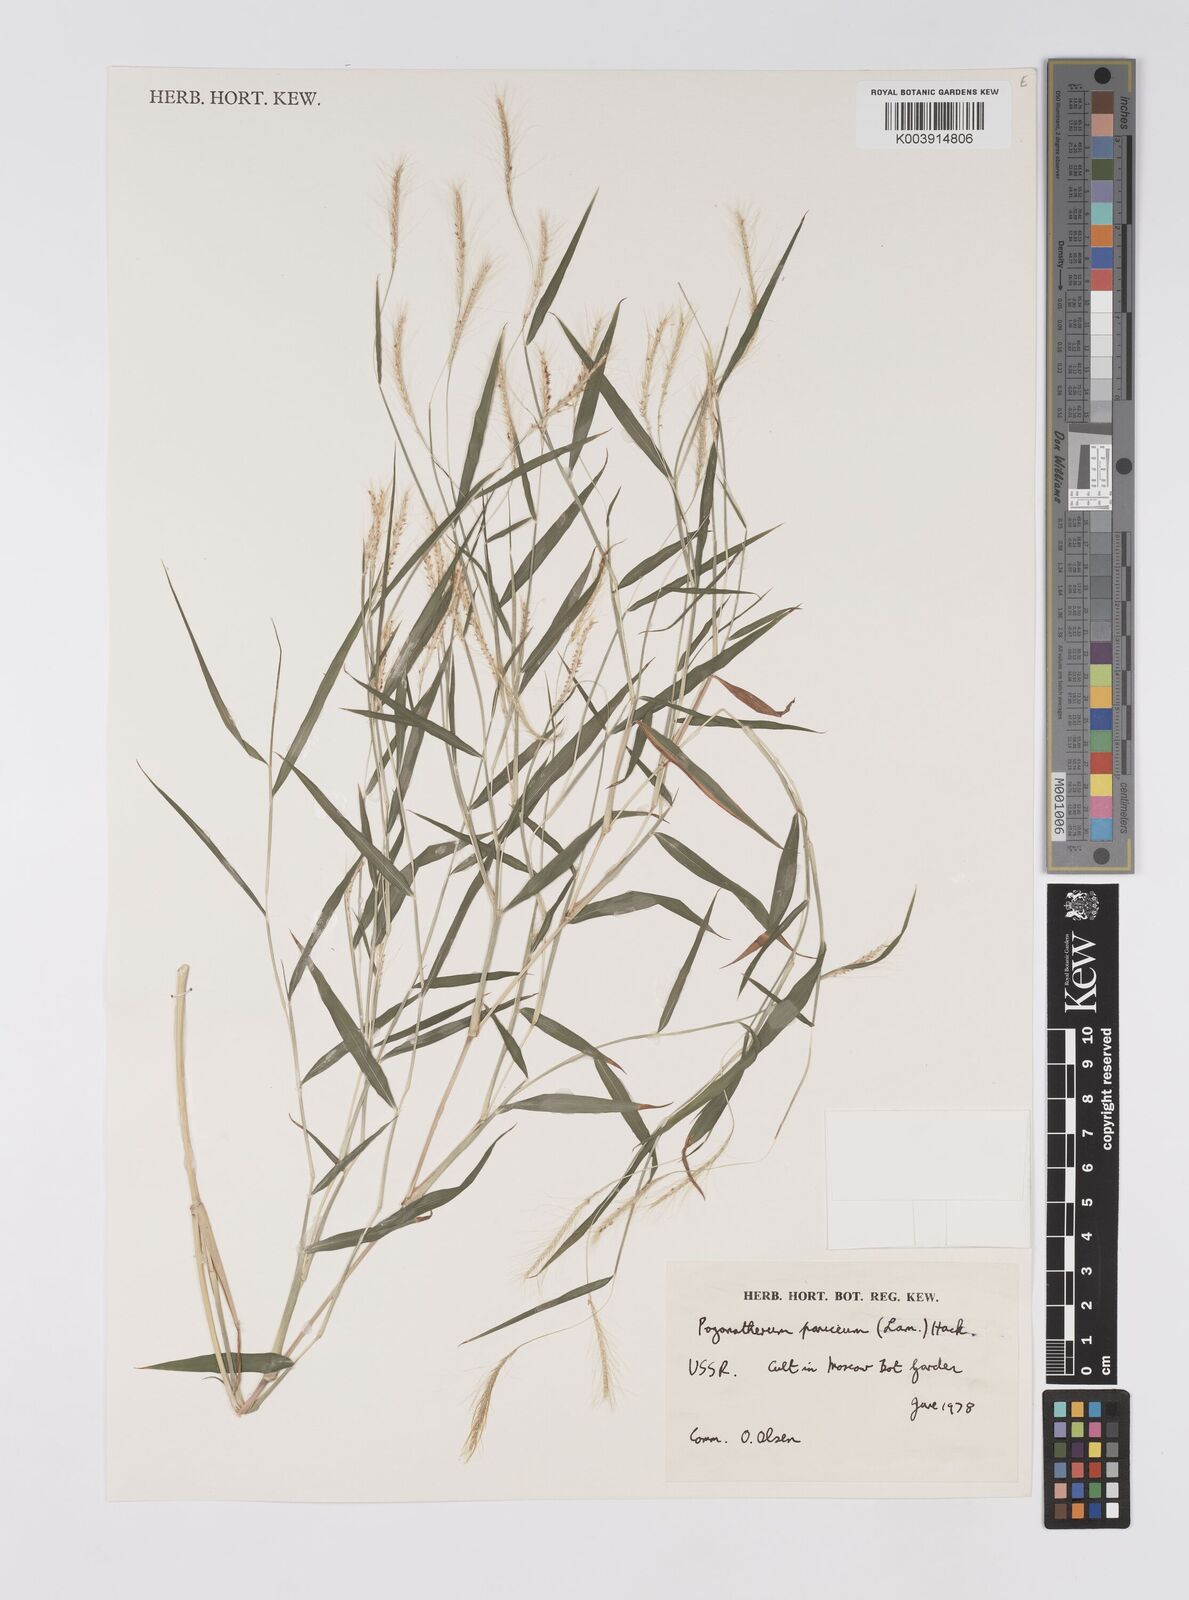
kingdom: Plantae
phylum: Tracheophyta
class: Liliopsida
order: Poales
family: Poaceae
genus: Pogonatherum
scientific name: Pogonatherum paniceum
